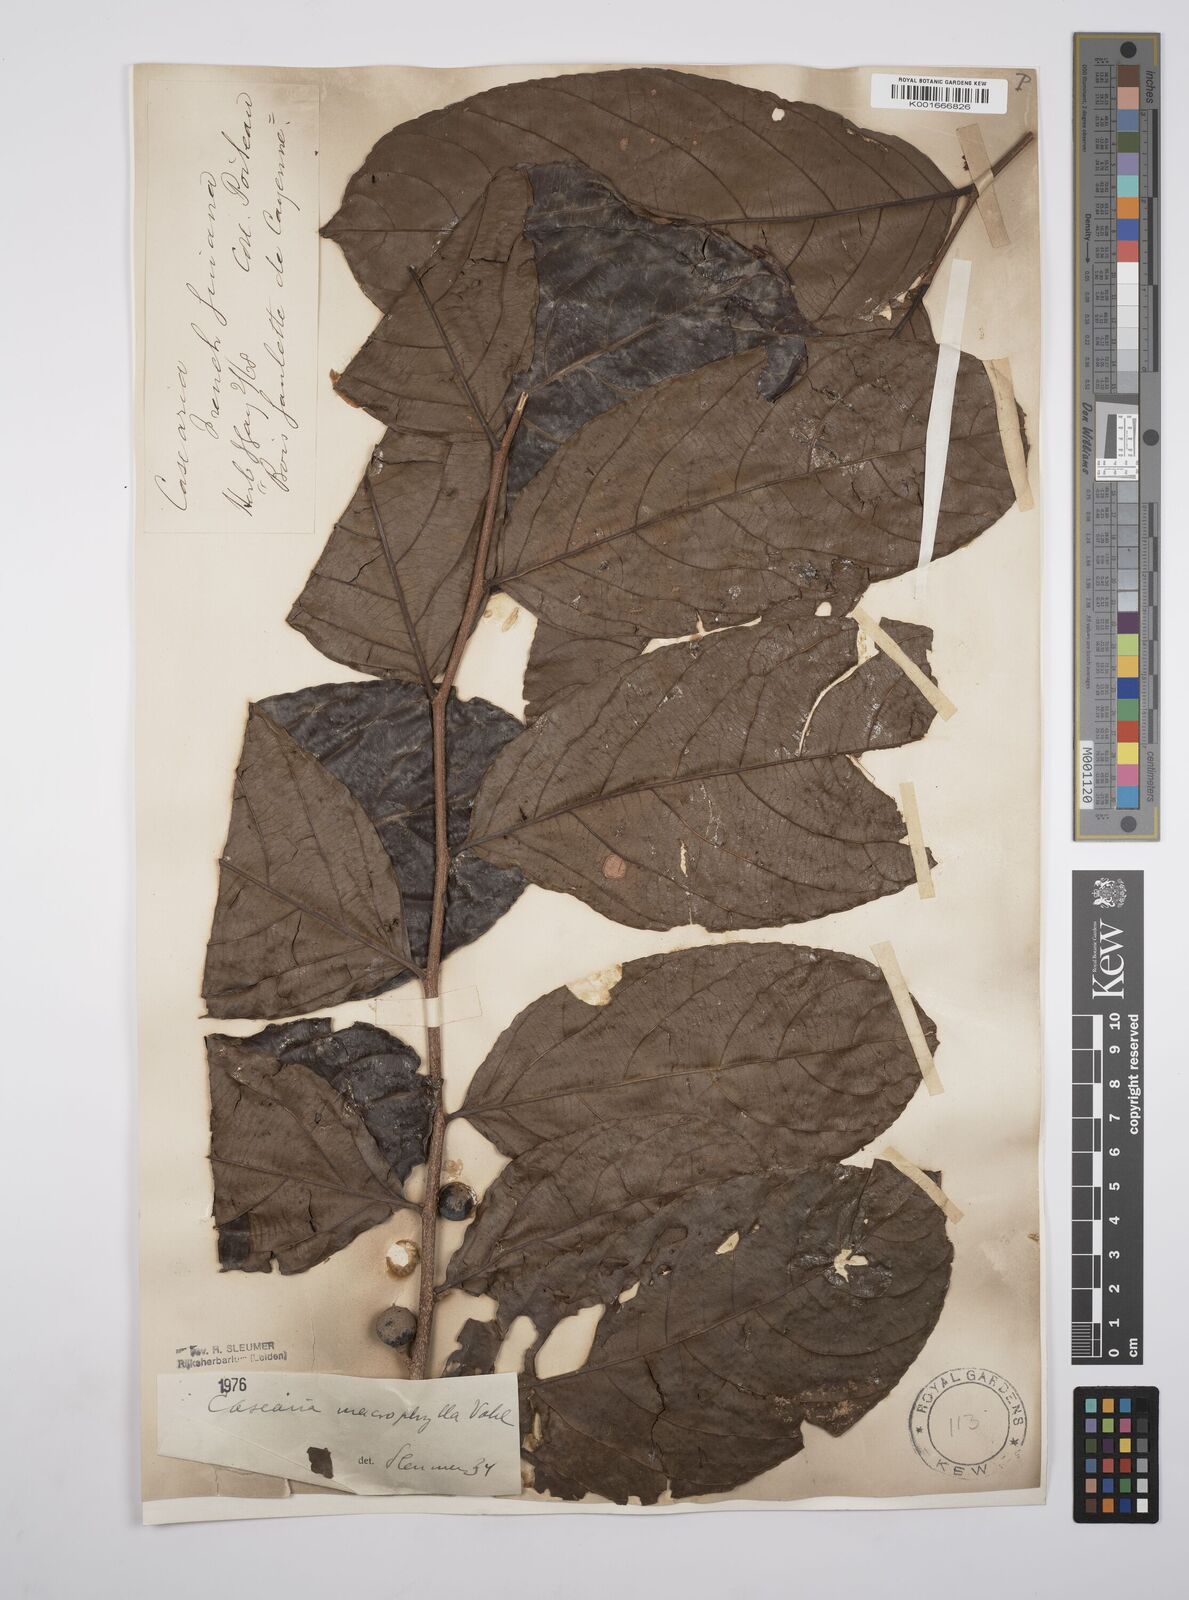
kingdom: Plantae
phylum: Tracheophyta
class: Magnoliopsida
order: Malpighiales
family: Salicaceae
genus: Casearia
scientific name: Casearia pitumba
